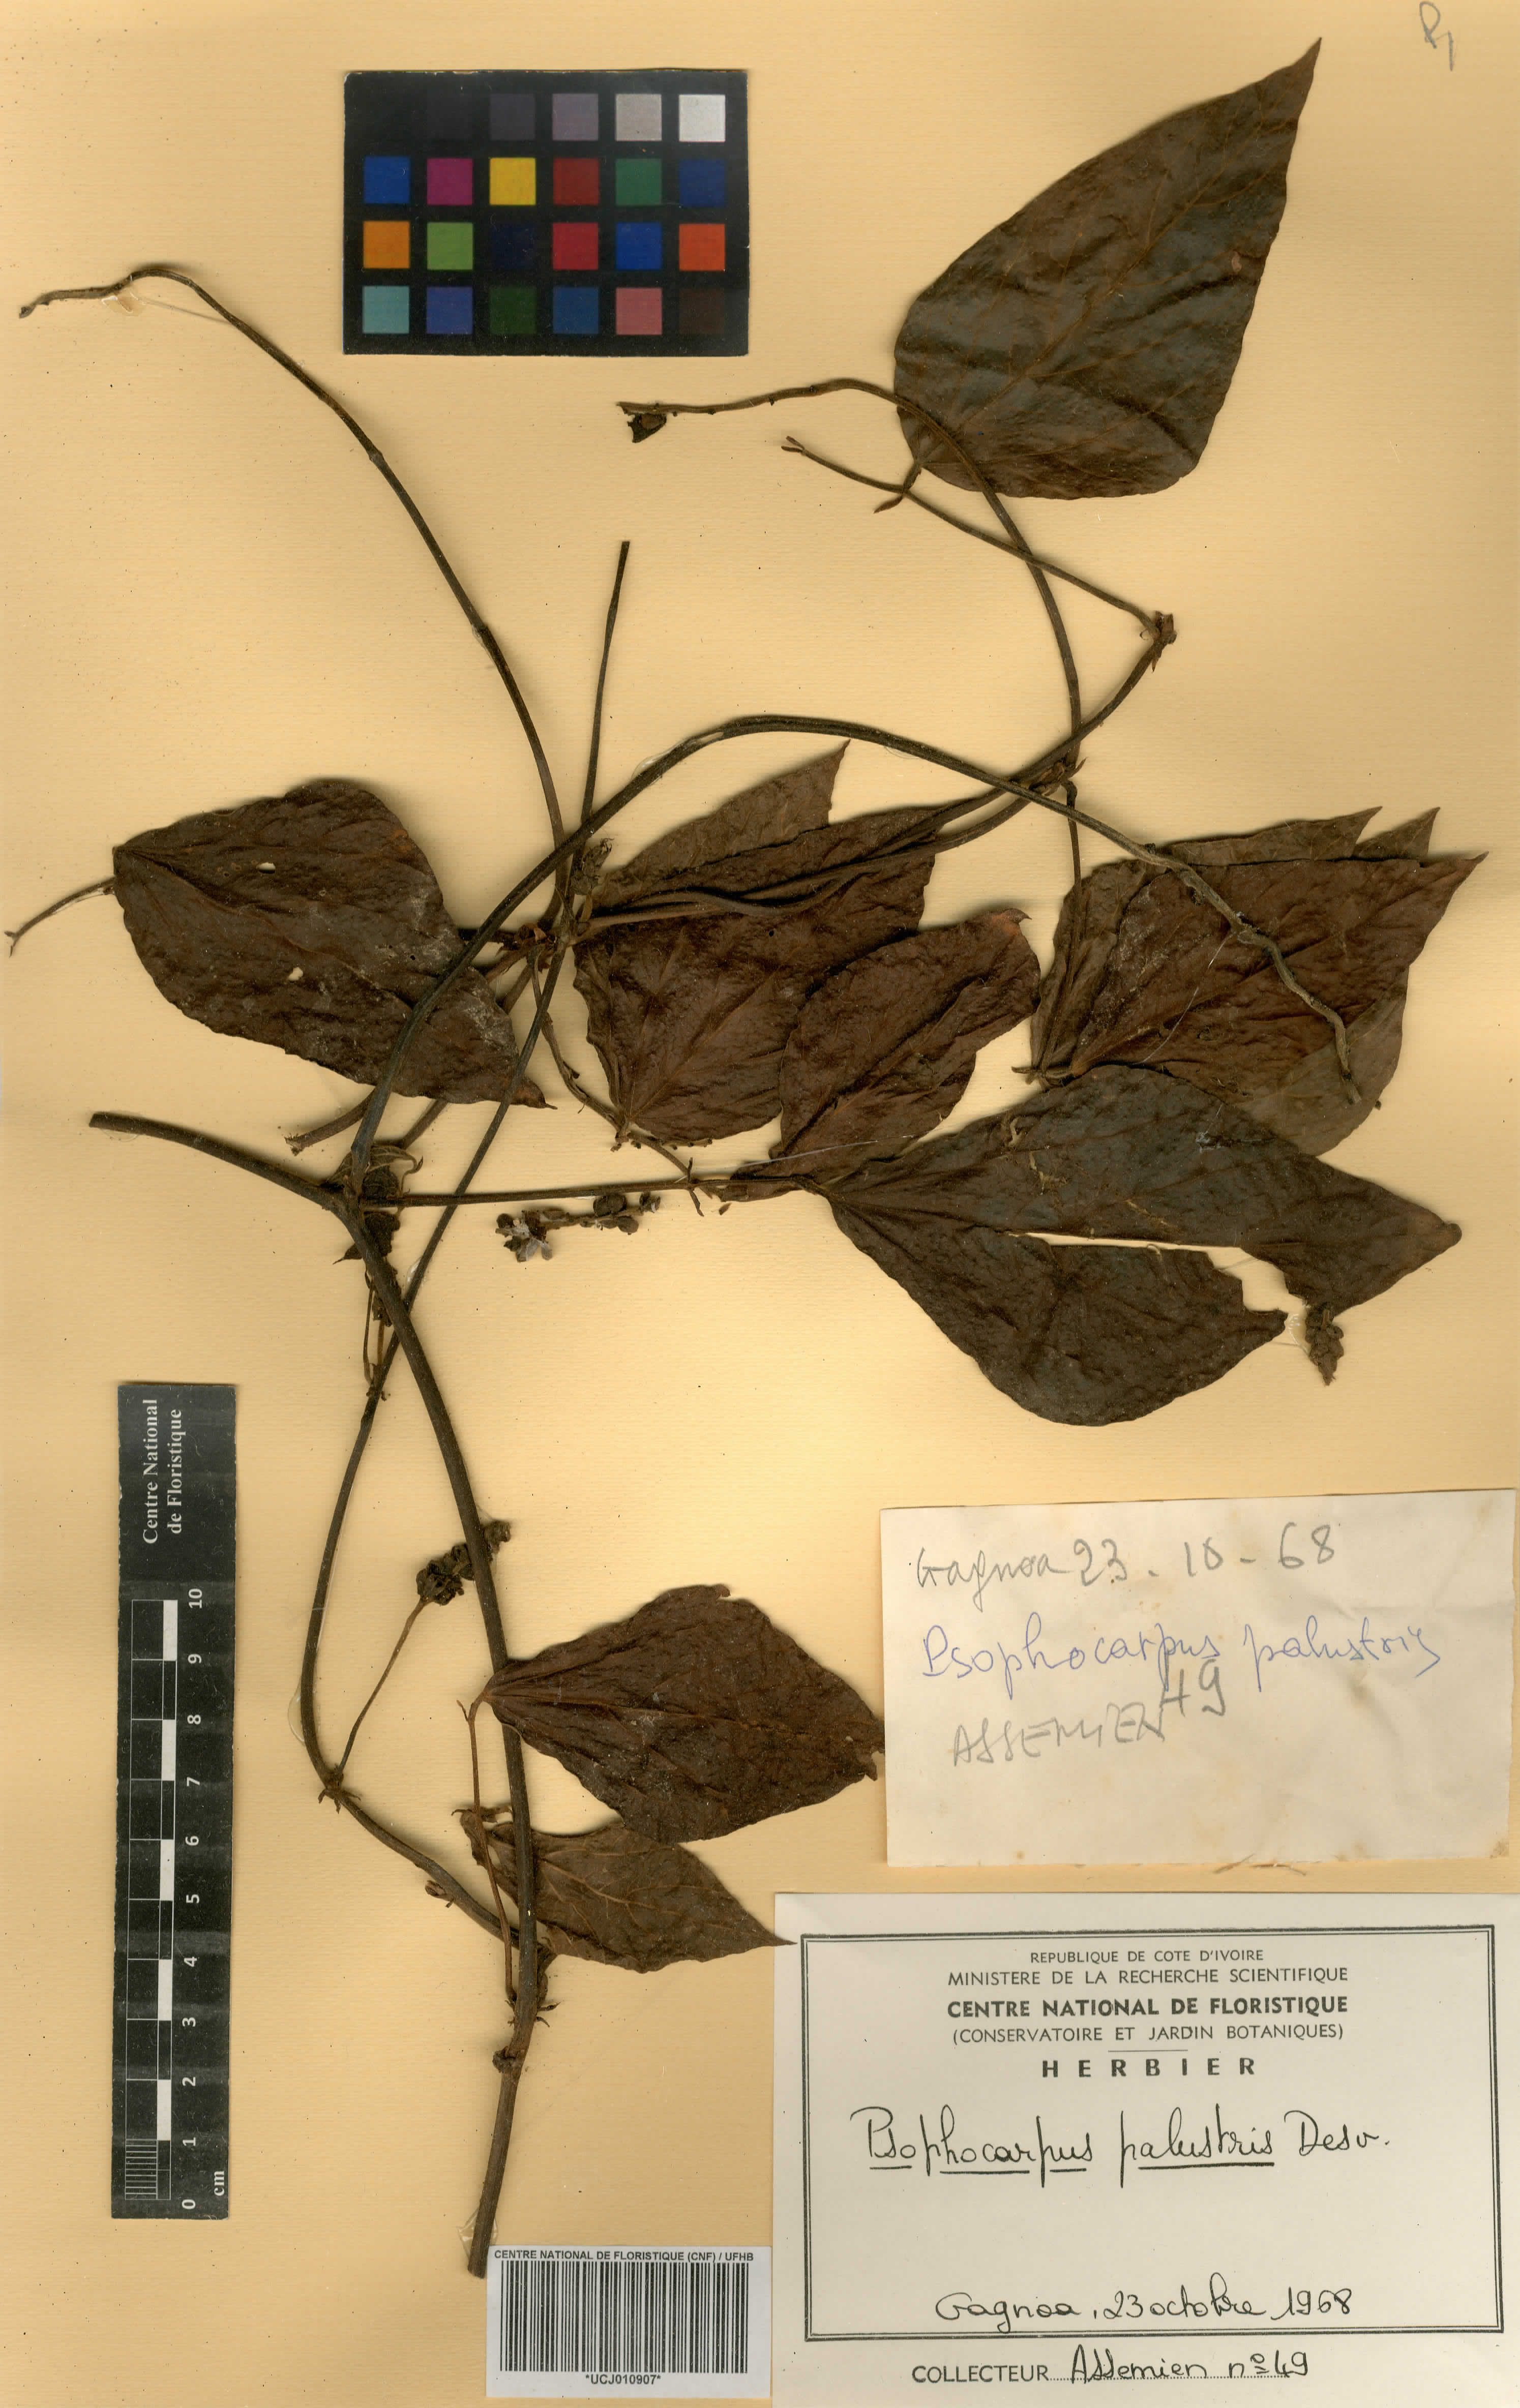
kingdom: Plantae
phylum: Tracheophyta
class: Magnoliopsida
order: Fabales
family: Fabaceae
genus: Psophocarpus
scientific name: Psophocarpus palustris
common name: African winged-bean
